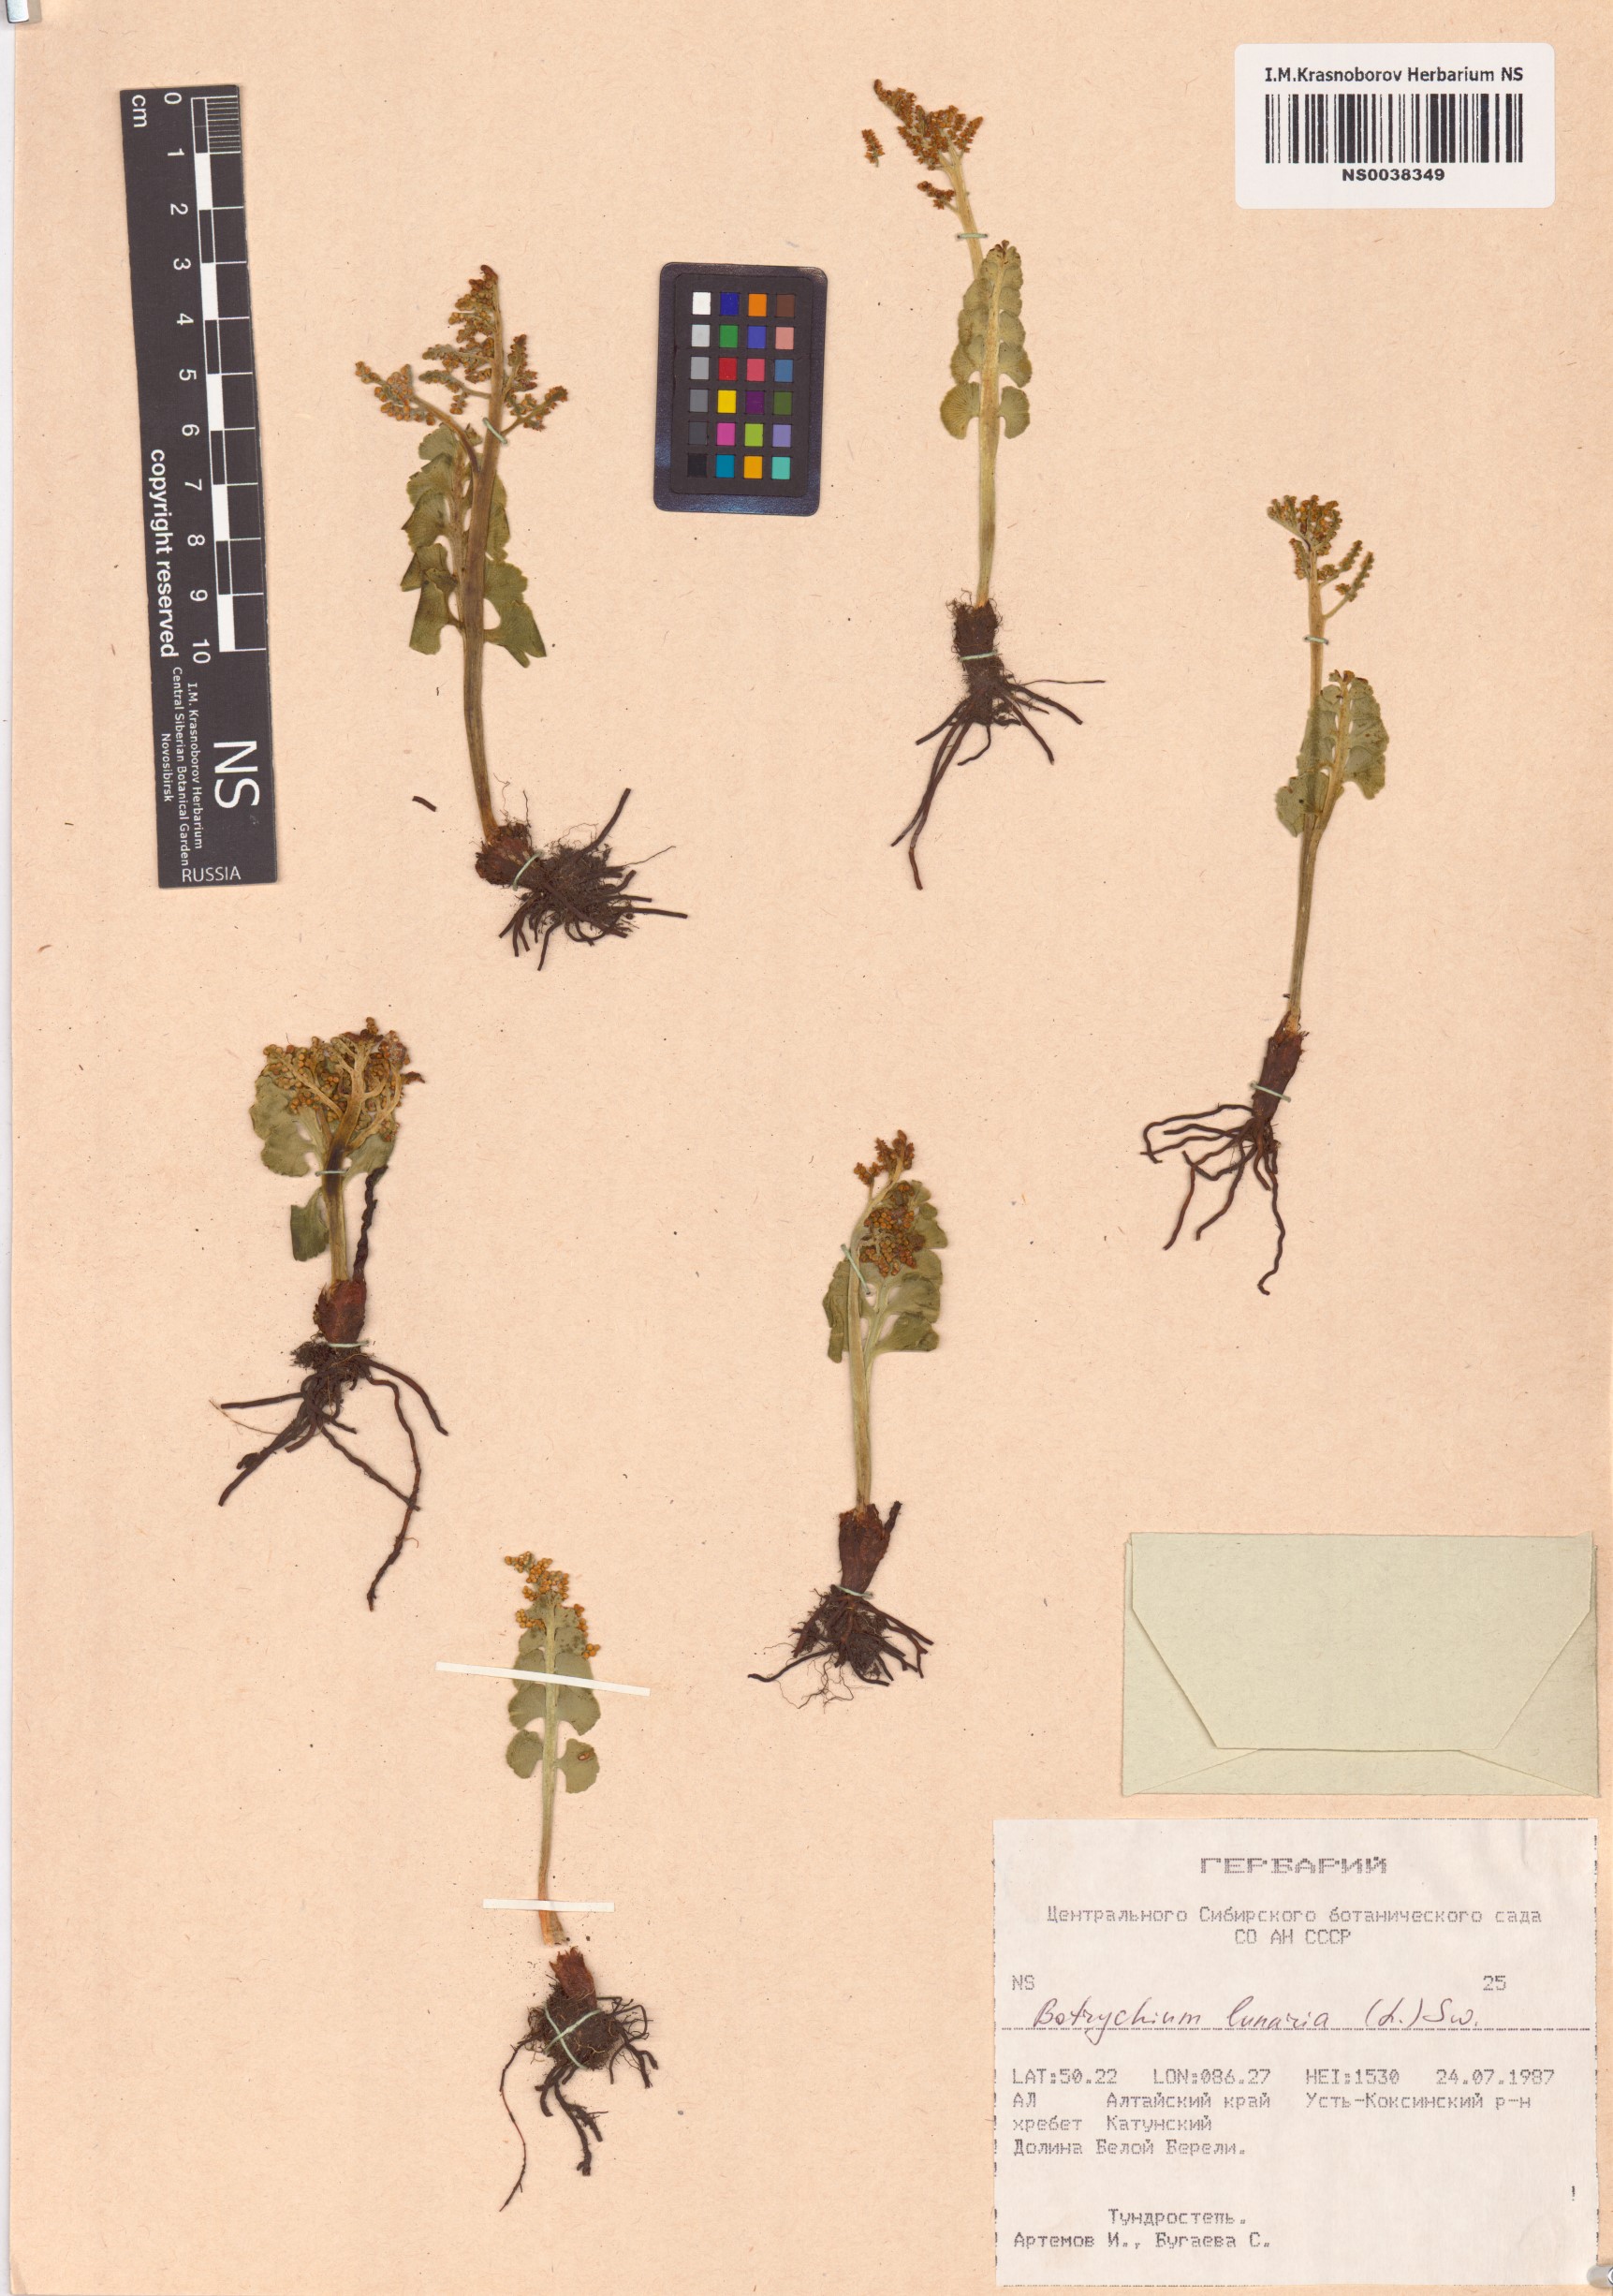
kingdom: Plantae
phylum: Tracheophyta
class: Polypodiopsida
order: Ophioglossales
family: Ophioglossaceae
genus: Botrychium
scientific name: Botrychium lunaria
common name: Moonwort
